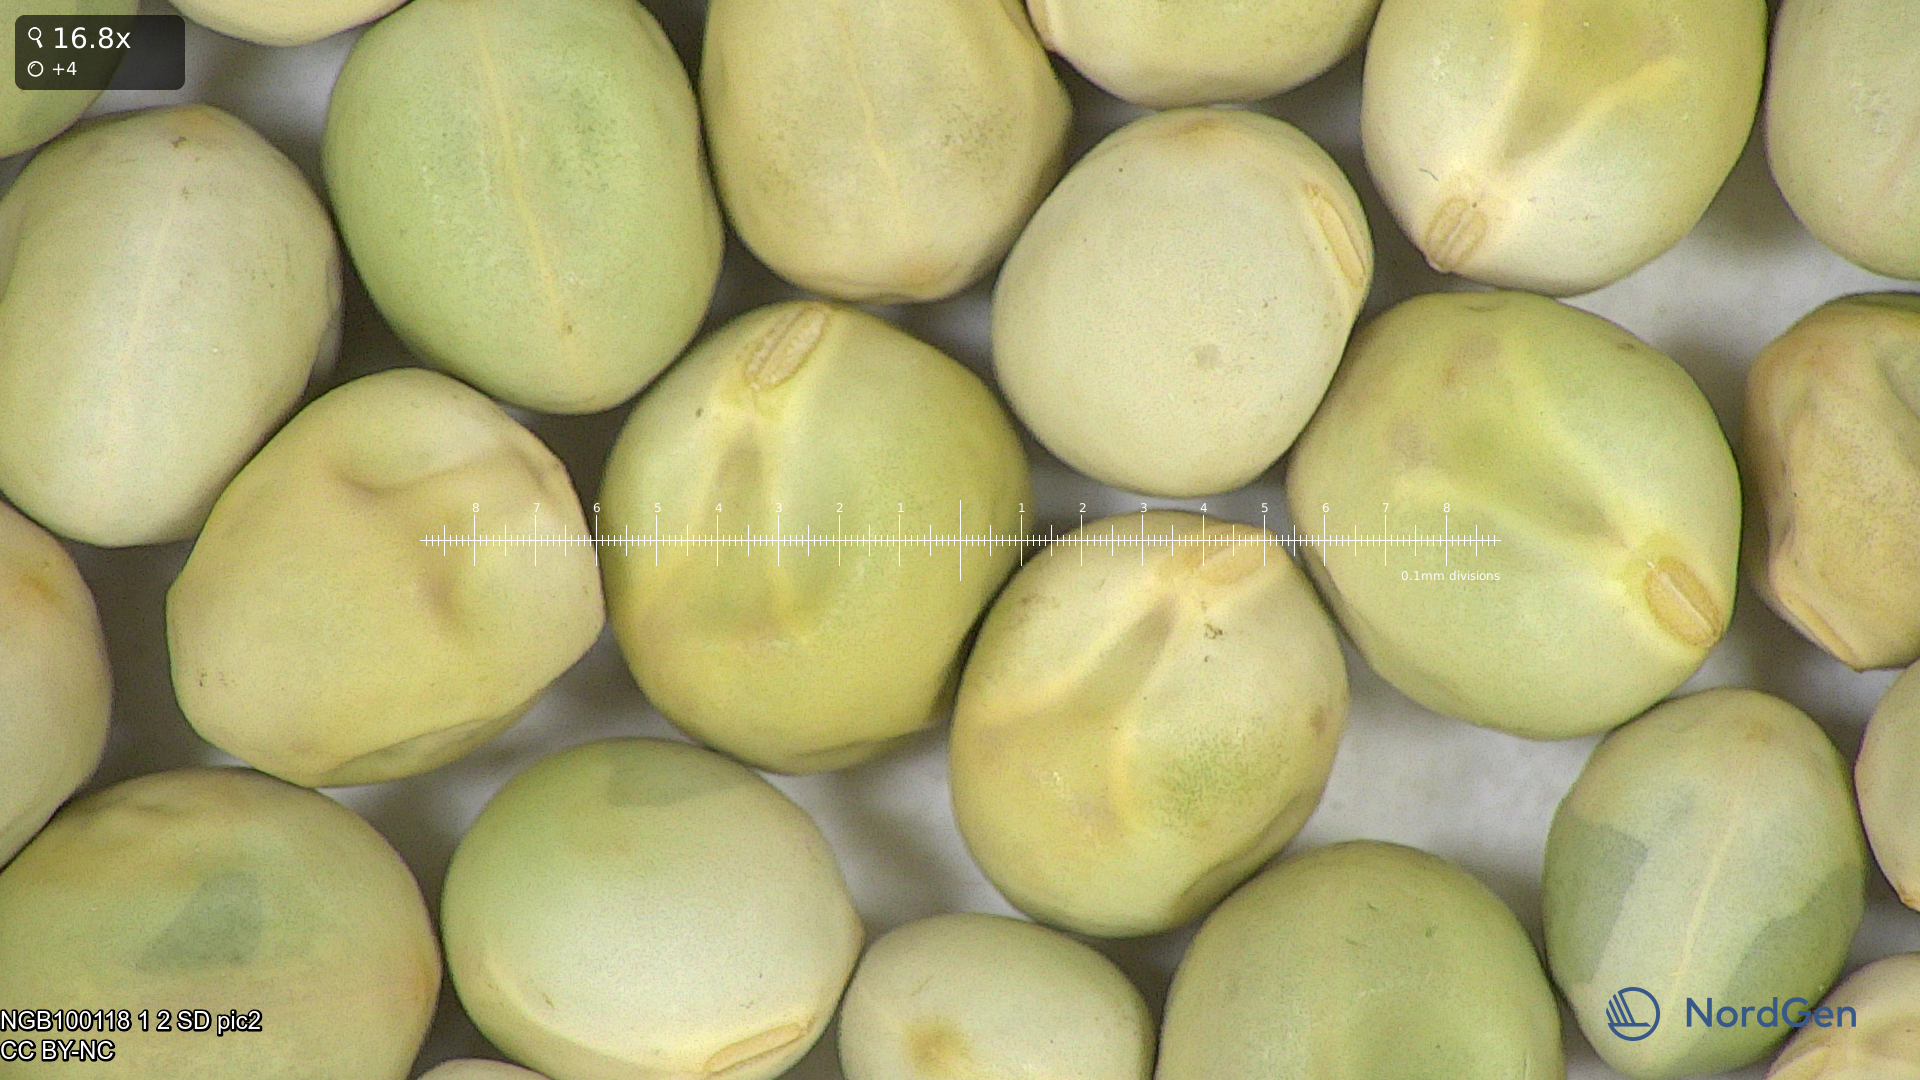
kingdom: Plantae
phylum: Tracheophyta
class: Magnoliopsida
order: Fabales
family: Fabaceae
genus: Lathyrus
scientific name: Lathyrus oleraceus
